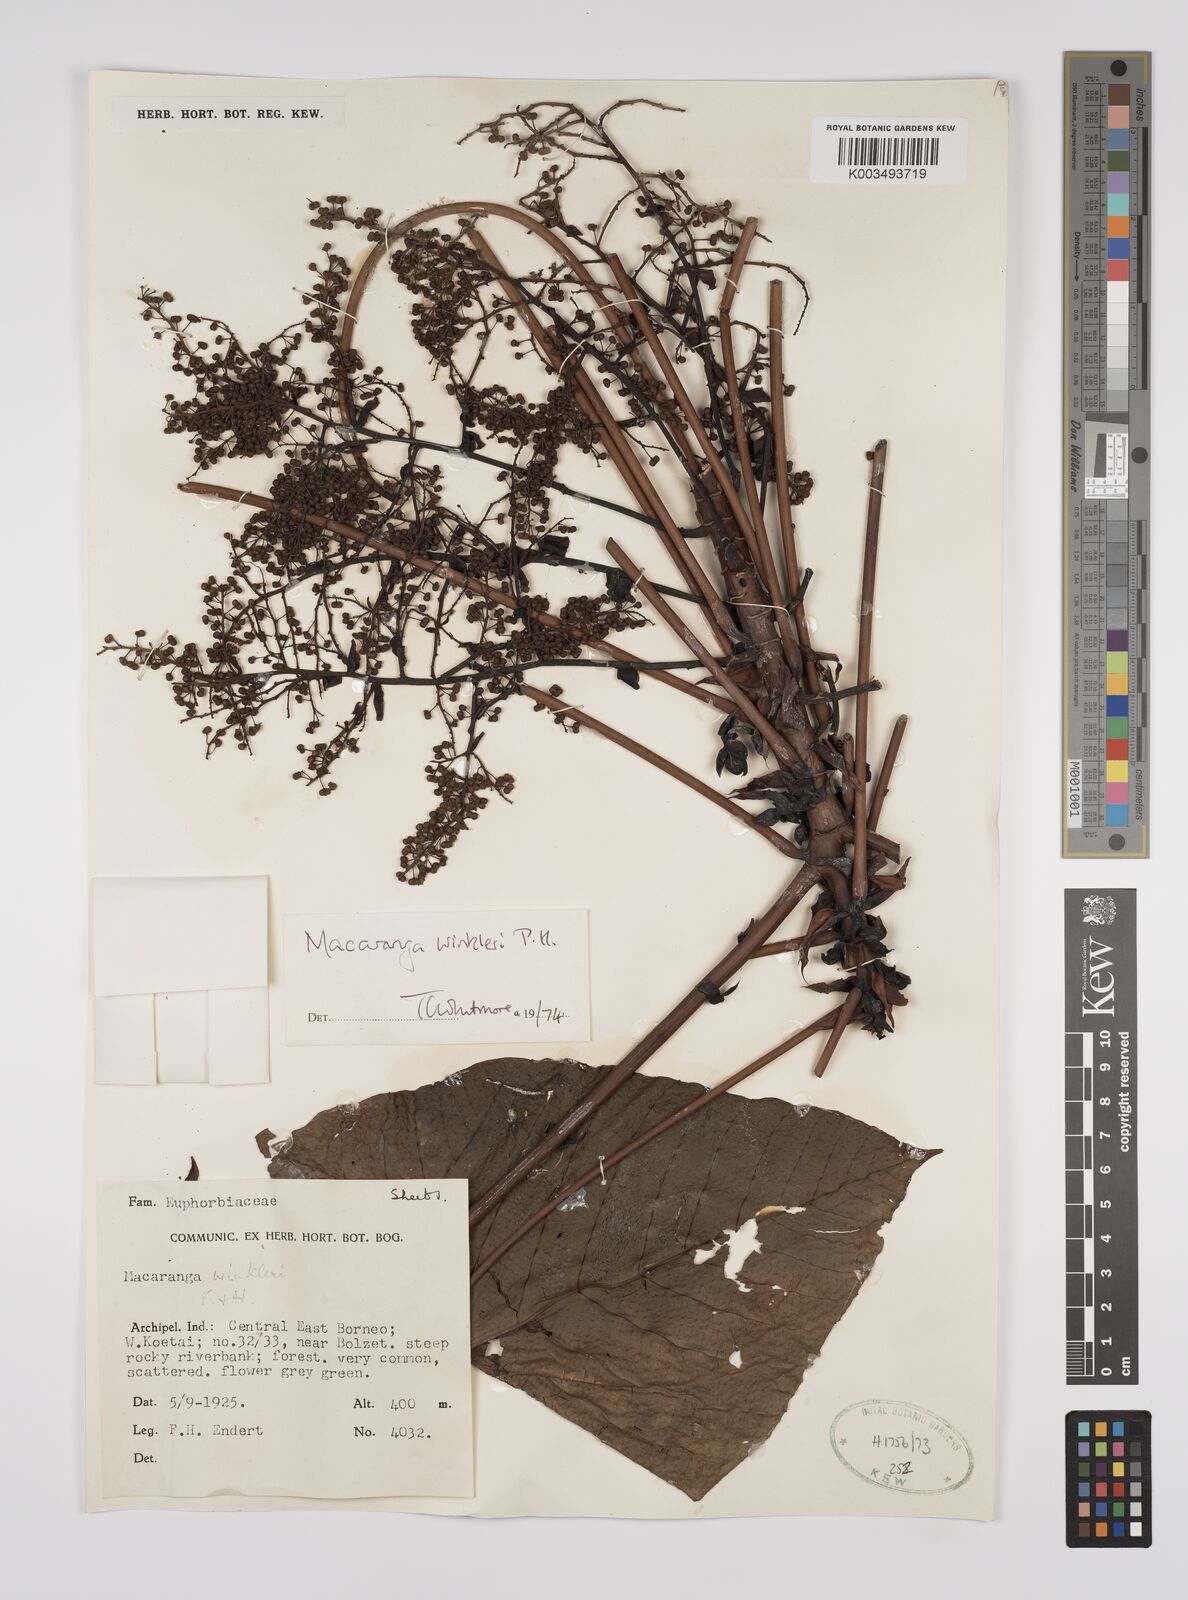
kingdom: Plantae
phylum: Tracheophyta
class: Magnoliopsida
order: Malpighiales
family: Euphorbiaceae
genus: Macaranga
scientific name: Macaranga winkleri
